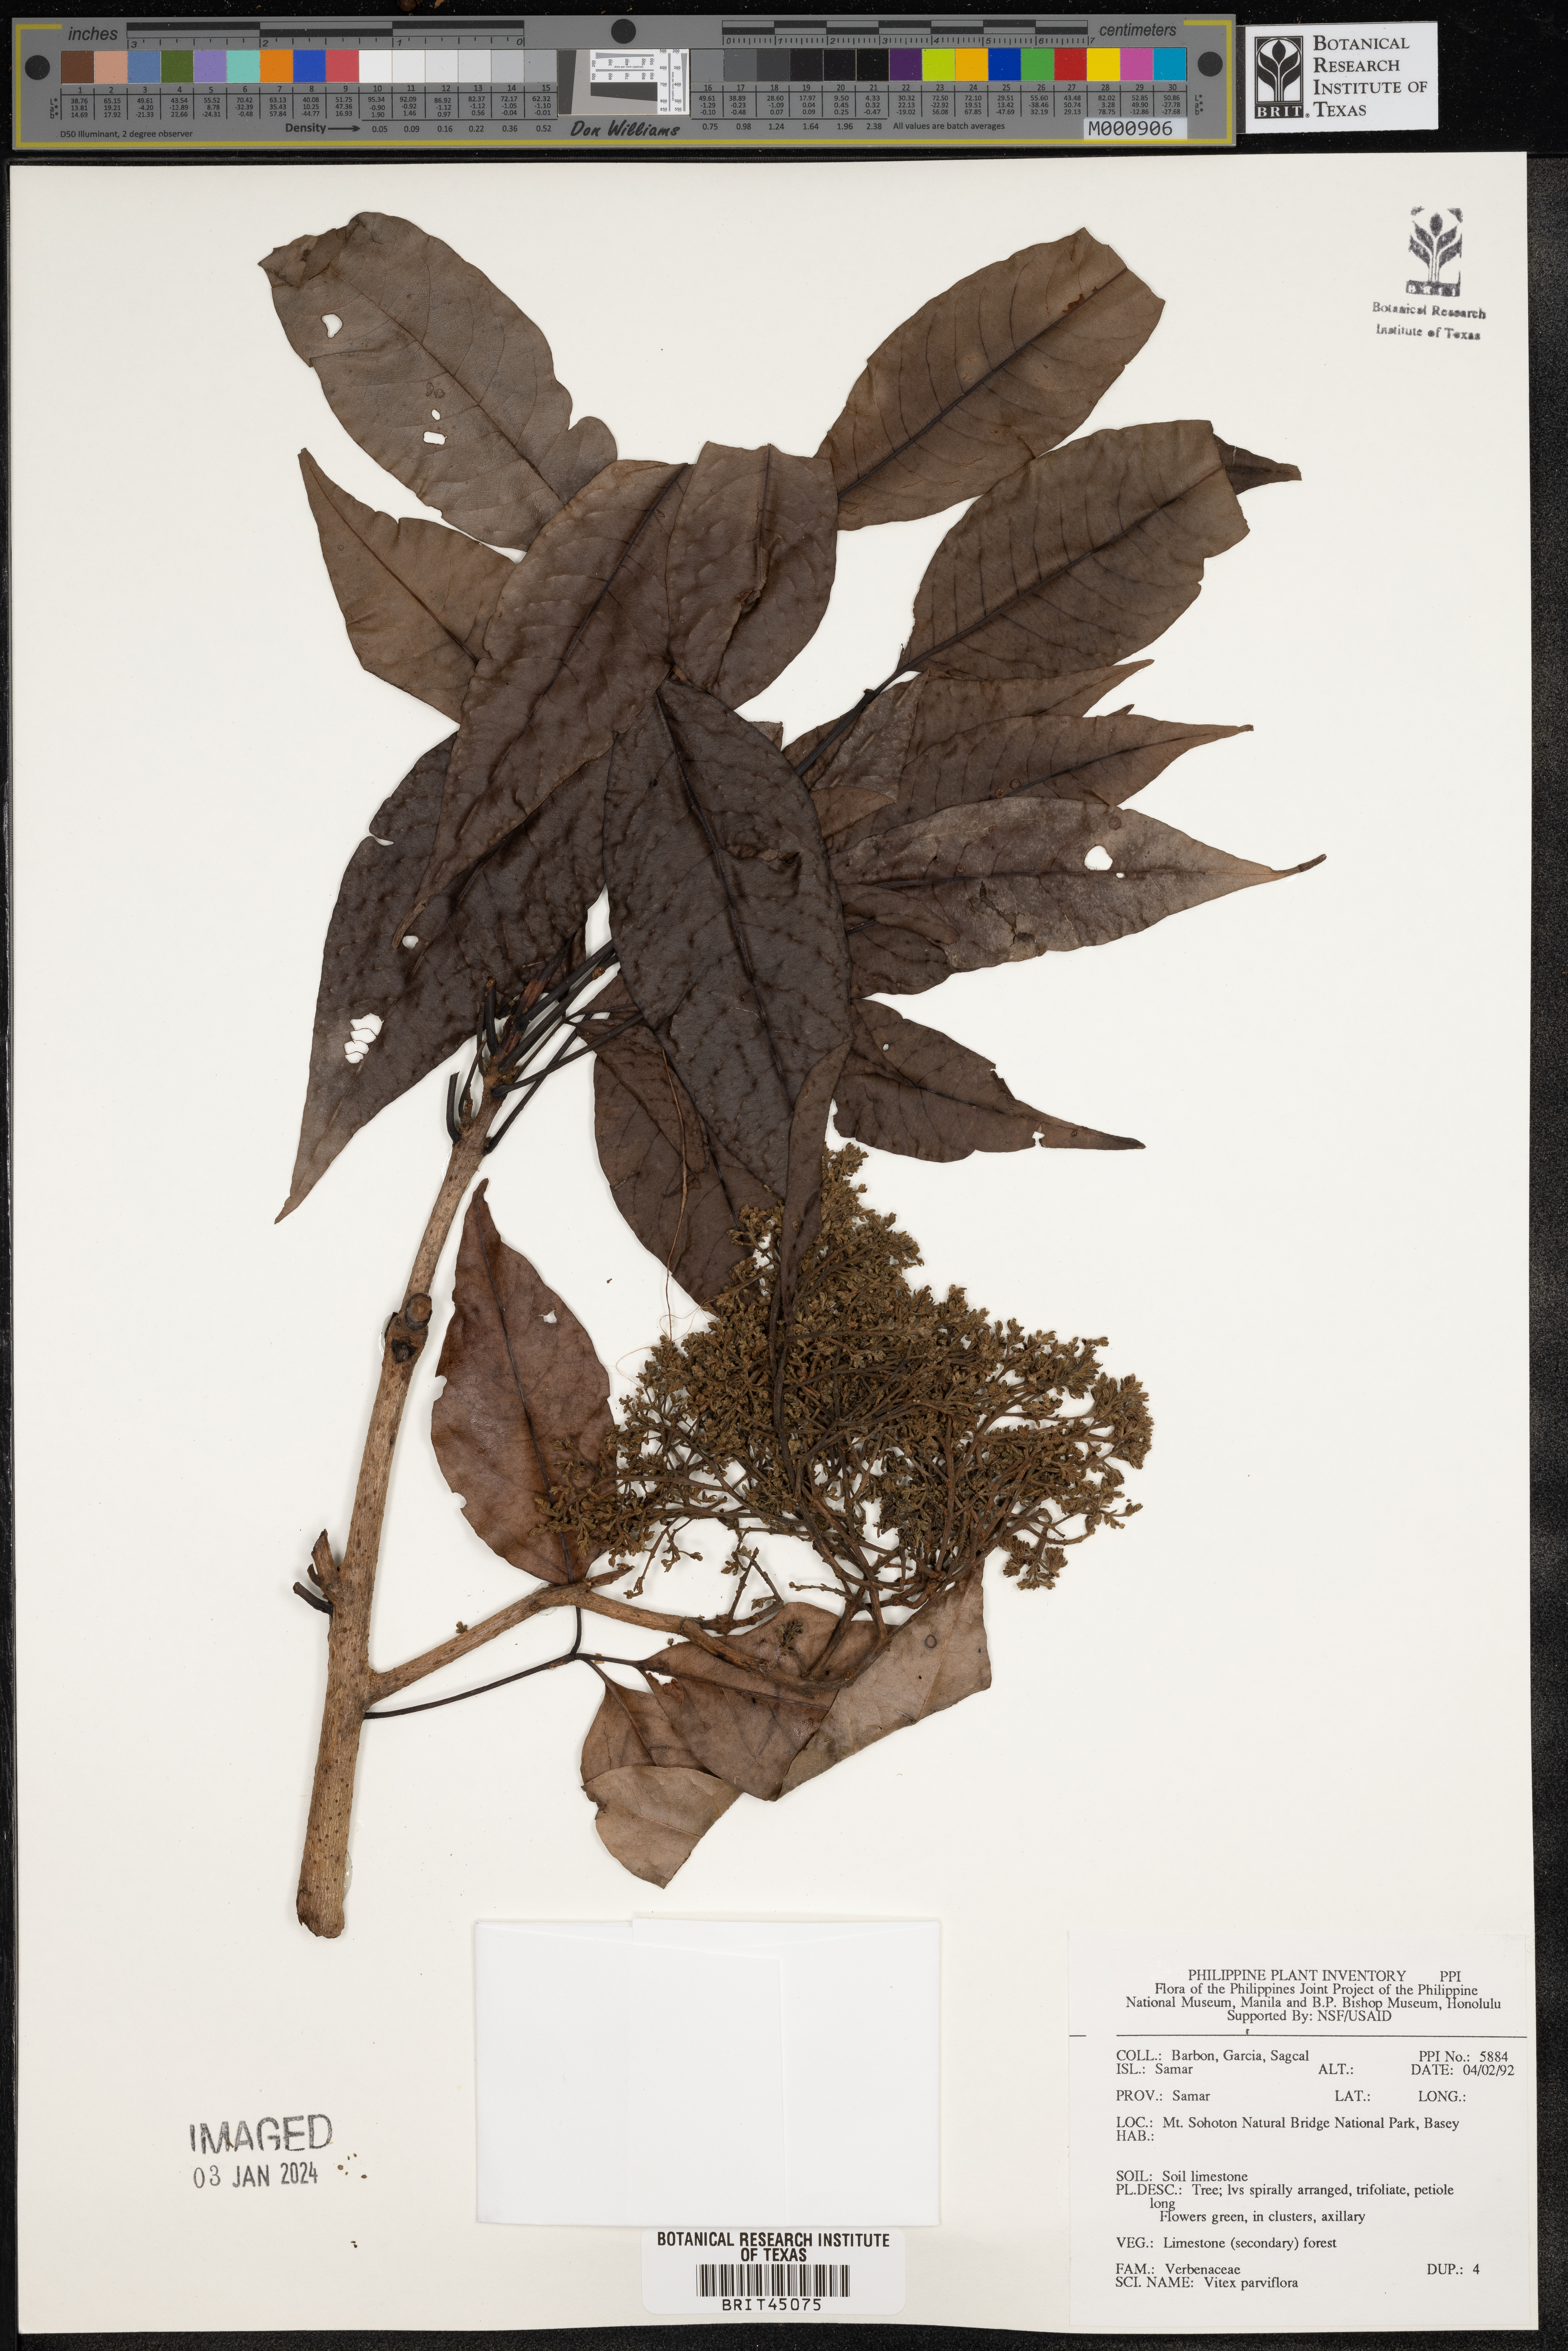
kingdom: Plantae
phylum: Tracheophyta
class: Magnoliopsida
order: Lamiales
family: Lamiaceae
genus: Vitex
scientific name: Vitex parviflora
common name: Smallflower chastetree
